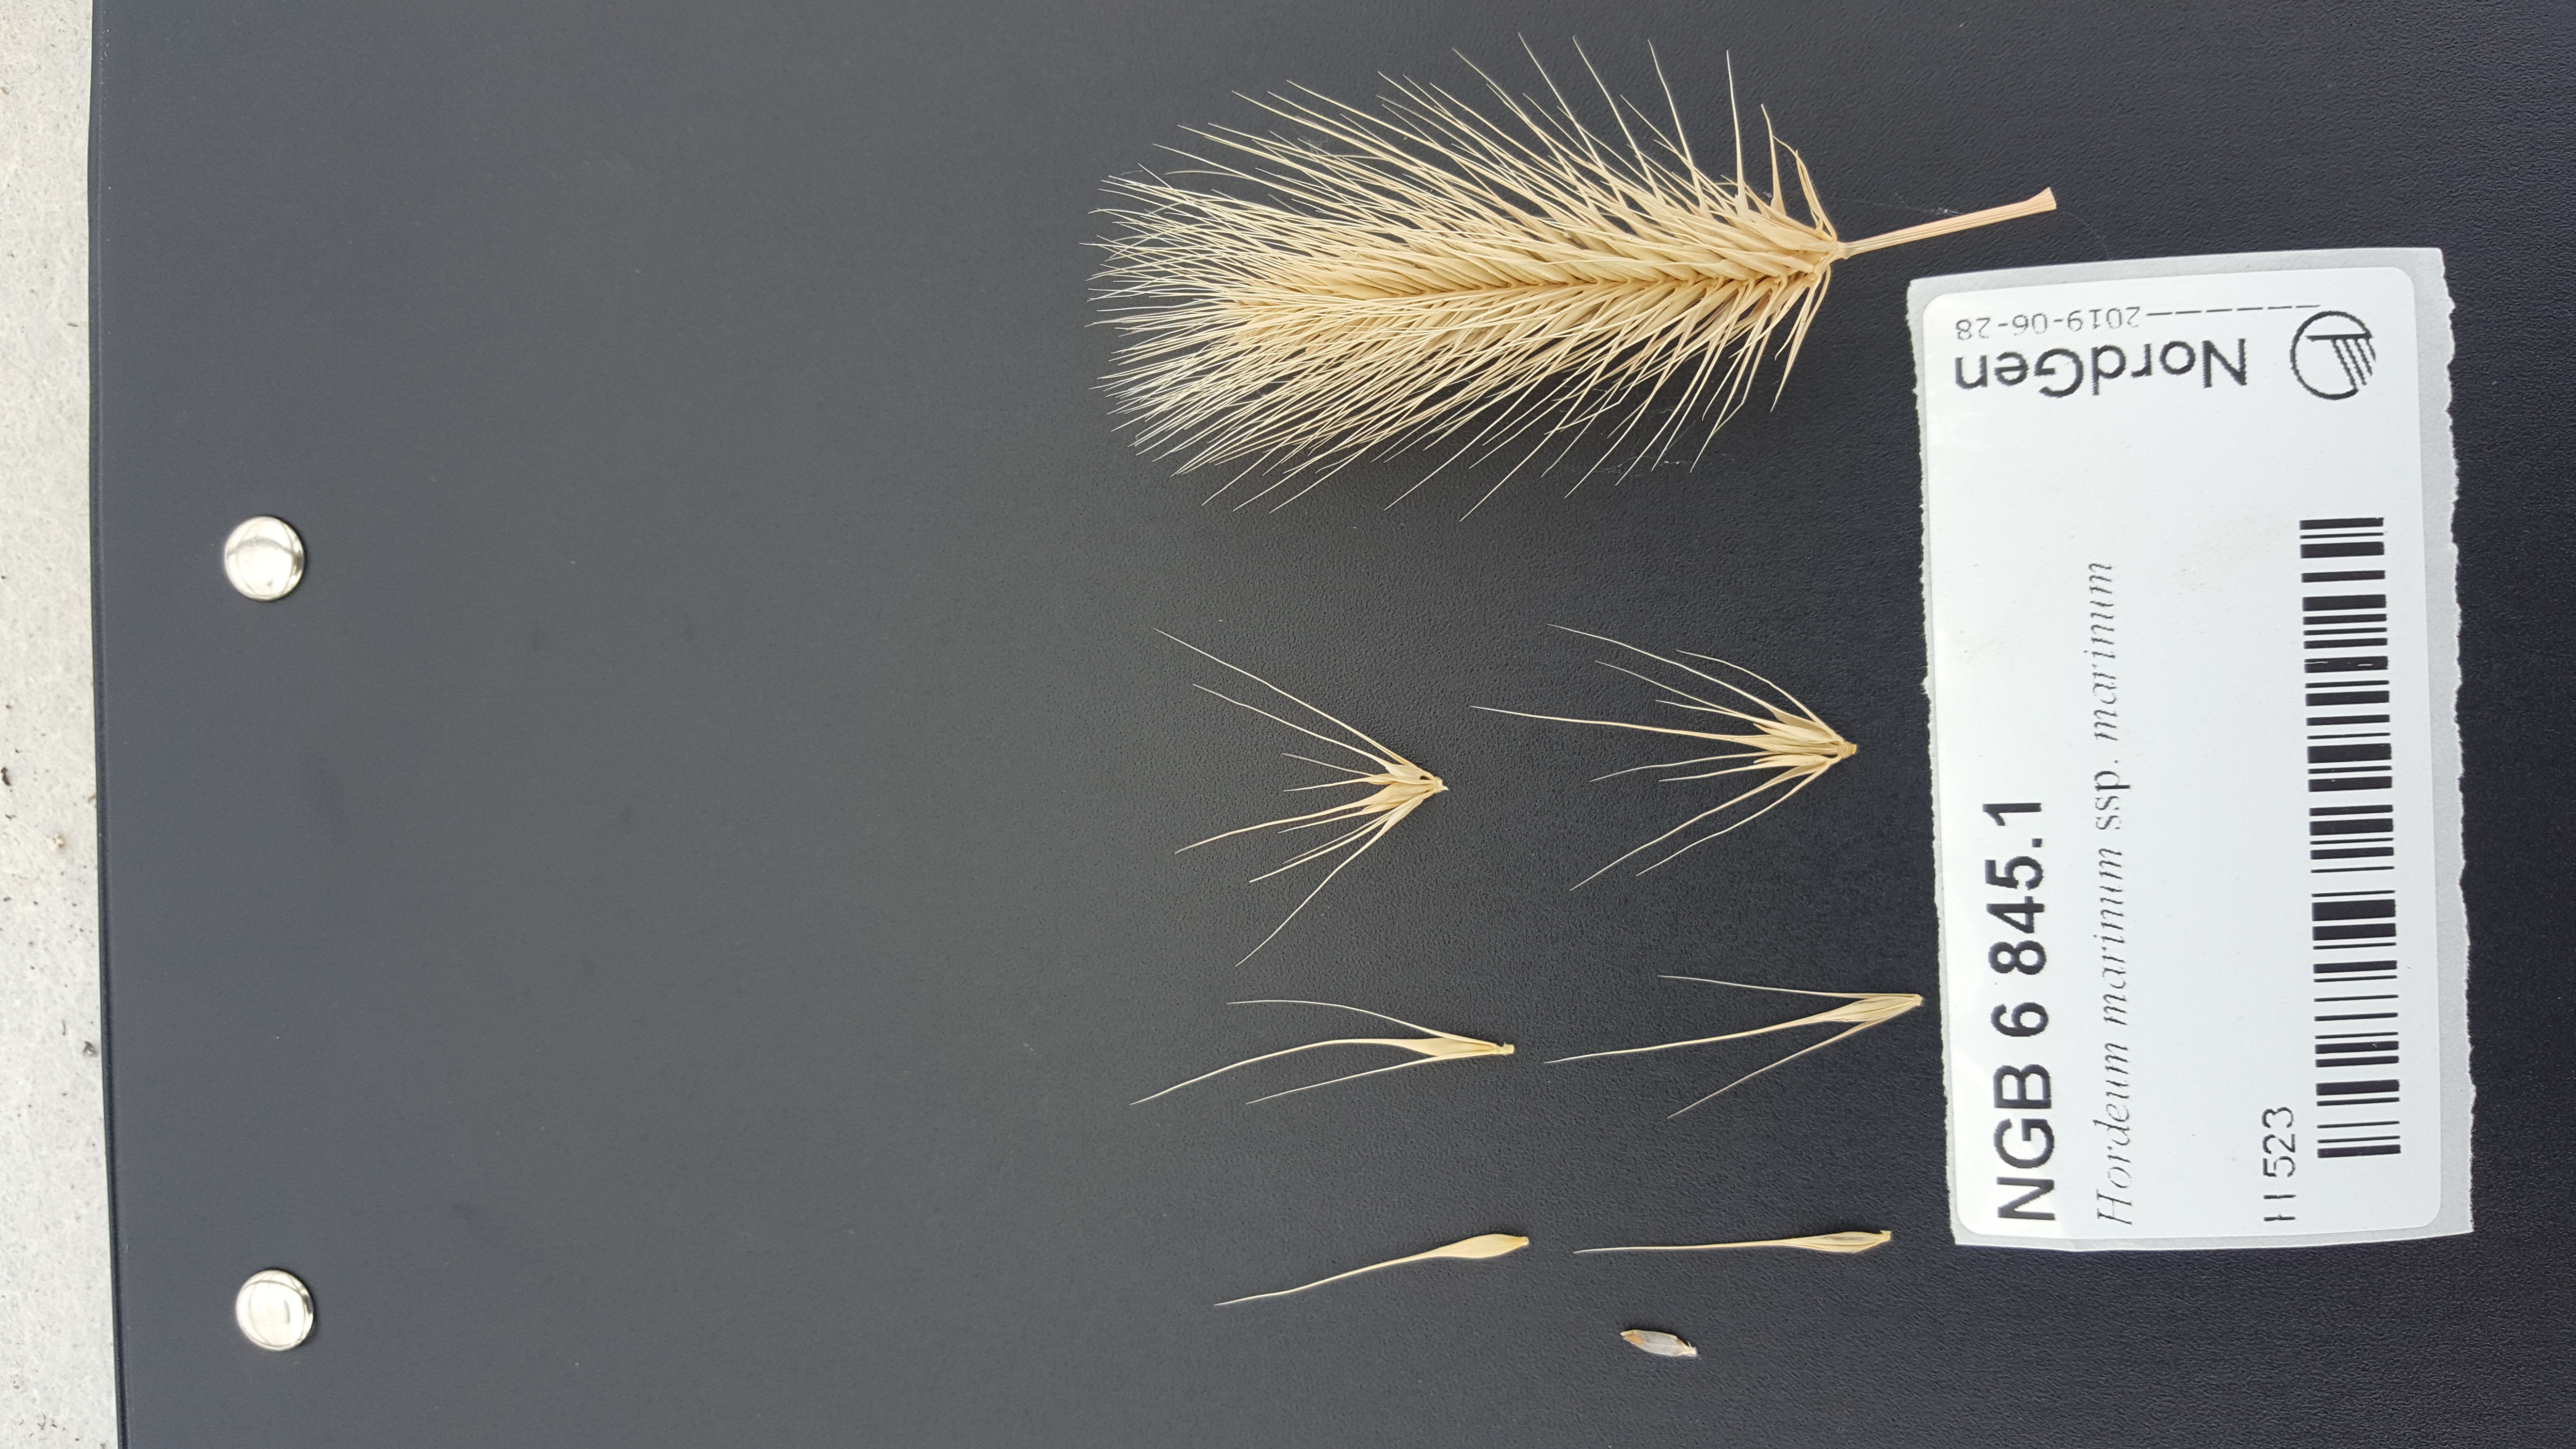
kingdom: Plantae
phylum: Tracheophyta
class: Liliopsida
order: Poales
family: Poaceae
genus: Hordeum
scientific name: Hordeum marinum
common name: Sea barley
